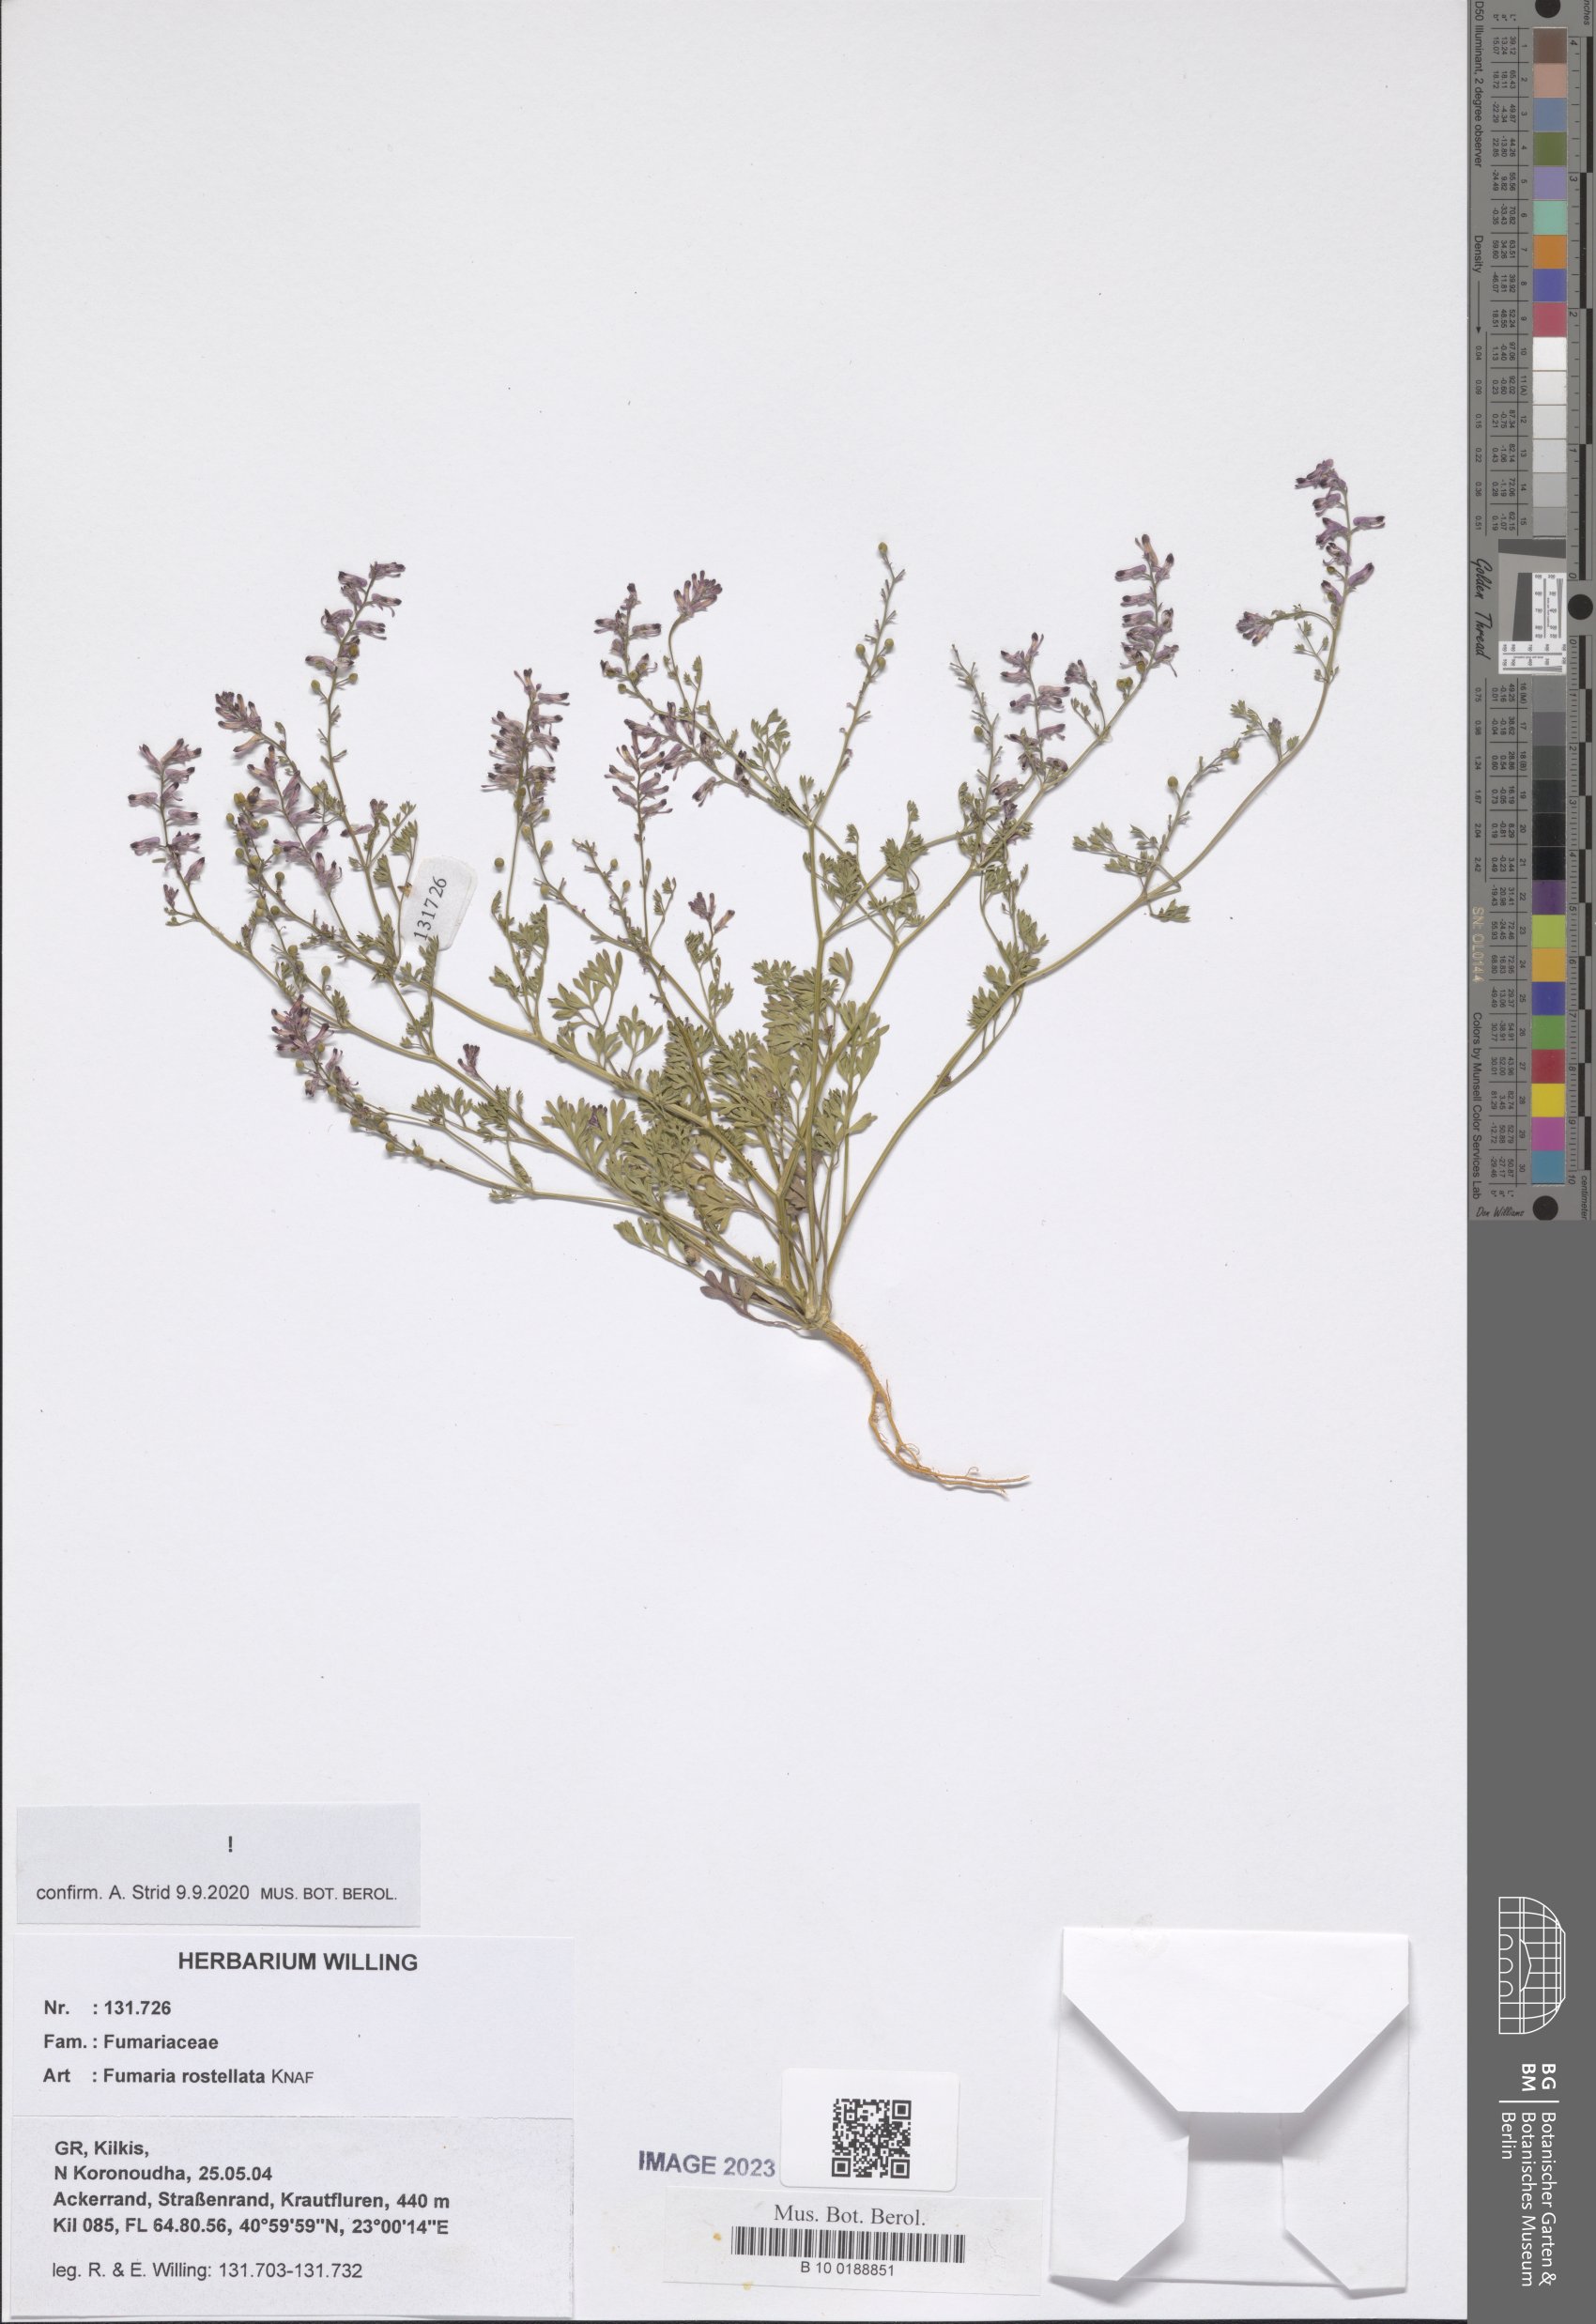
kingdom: Plantae
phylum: Tracheophyta
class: Magnoliopsida
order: Ranunculales
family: Papaveraceae
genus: Fumaria
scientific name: Fumaria rostellata
